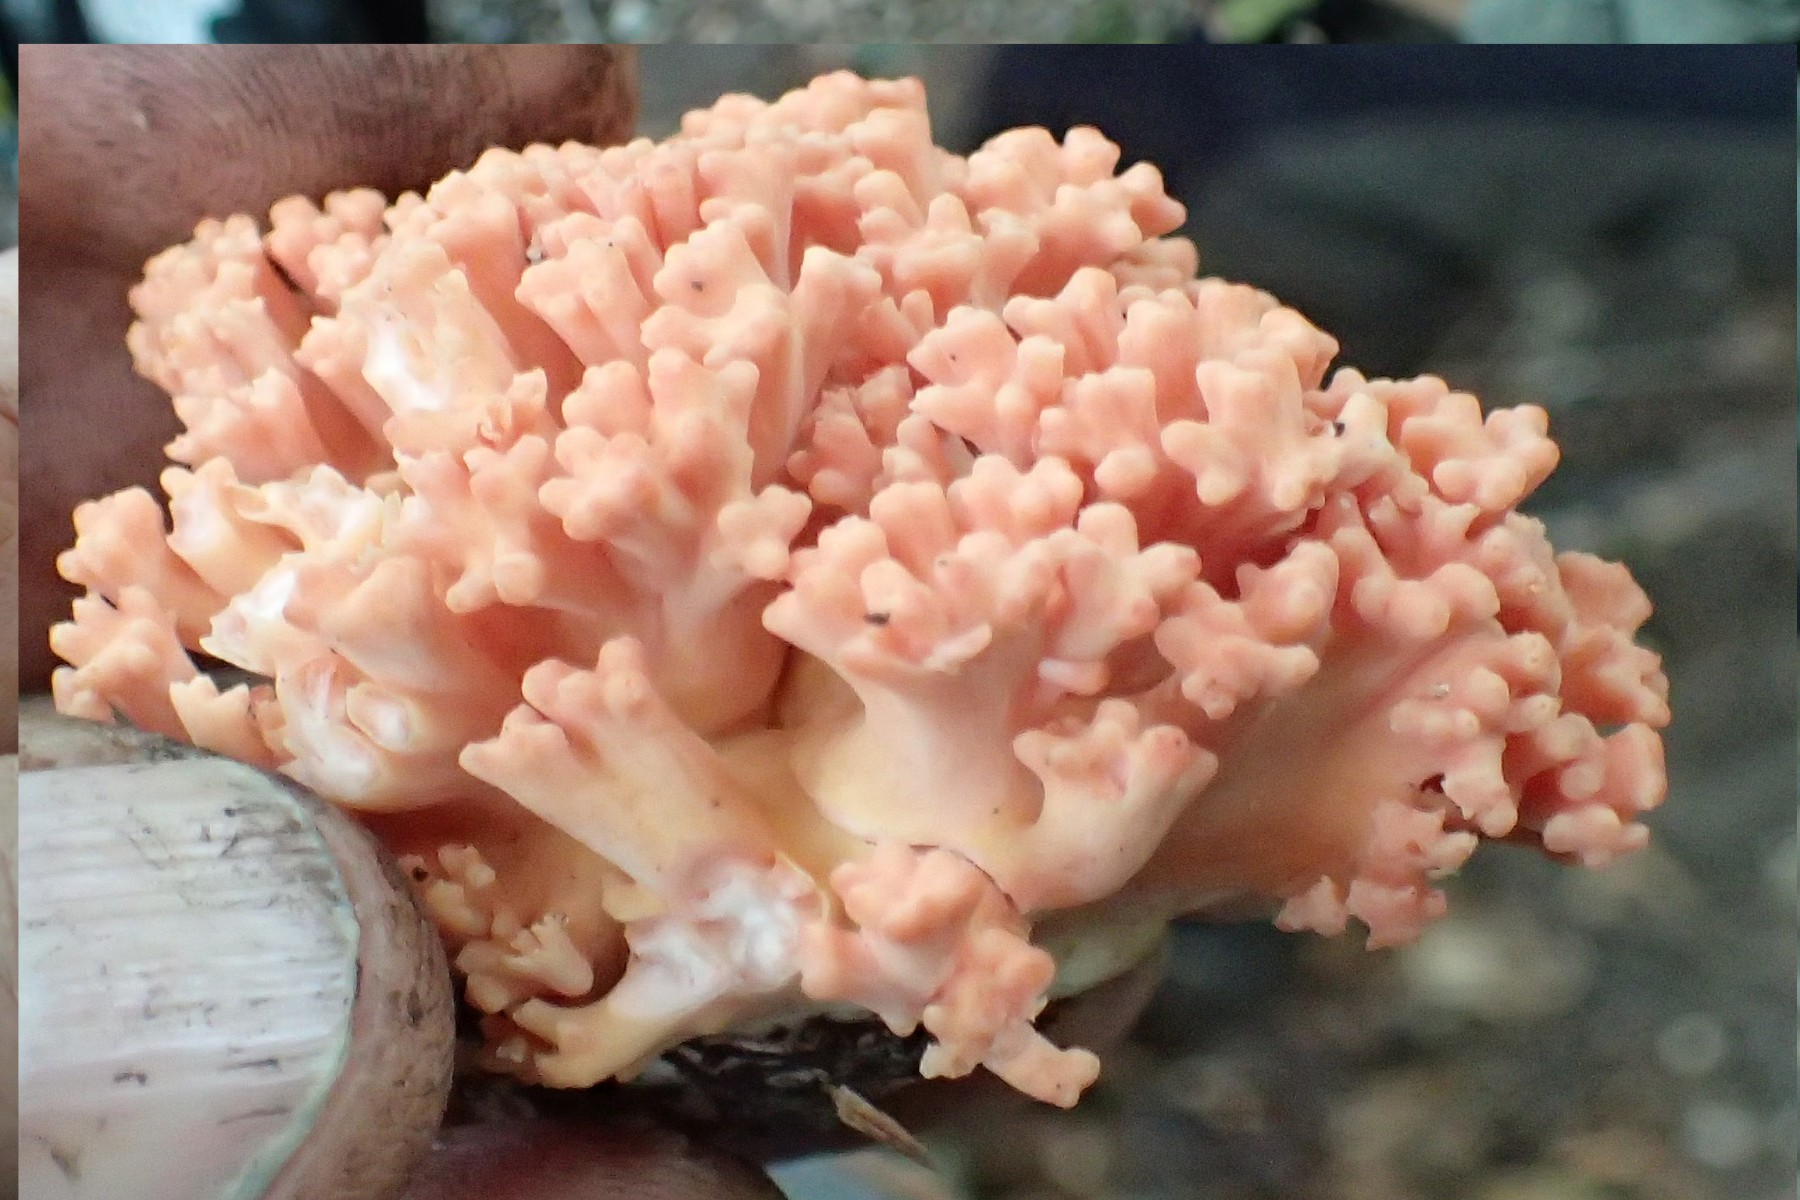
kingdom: Fungi
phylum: Basidiomycota
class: Agaricomycetes
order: Gomphales
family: Gomphaceae
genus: Ramaria
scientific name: Ramaria
